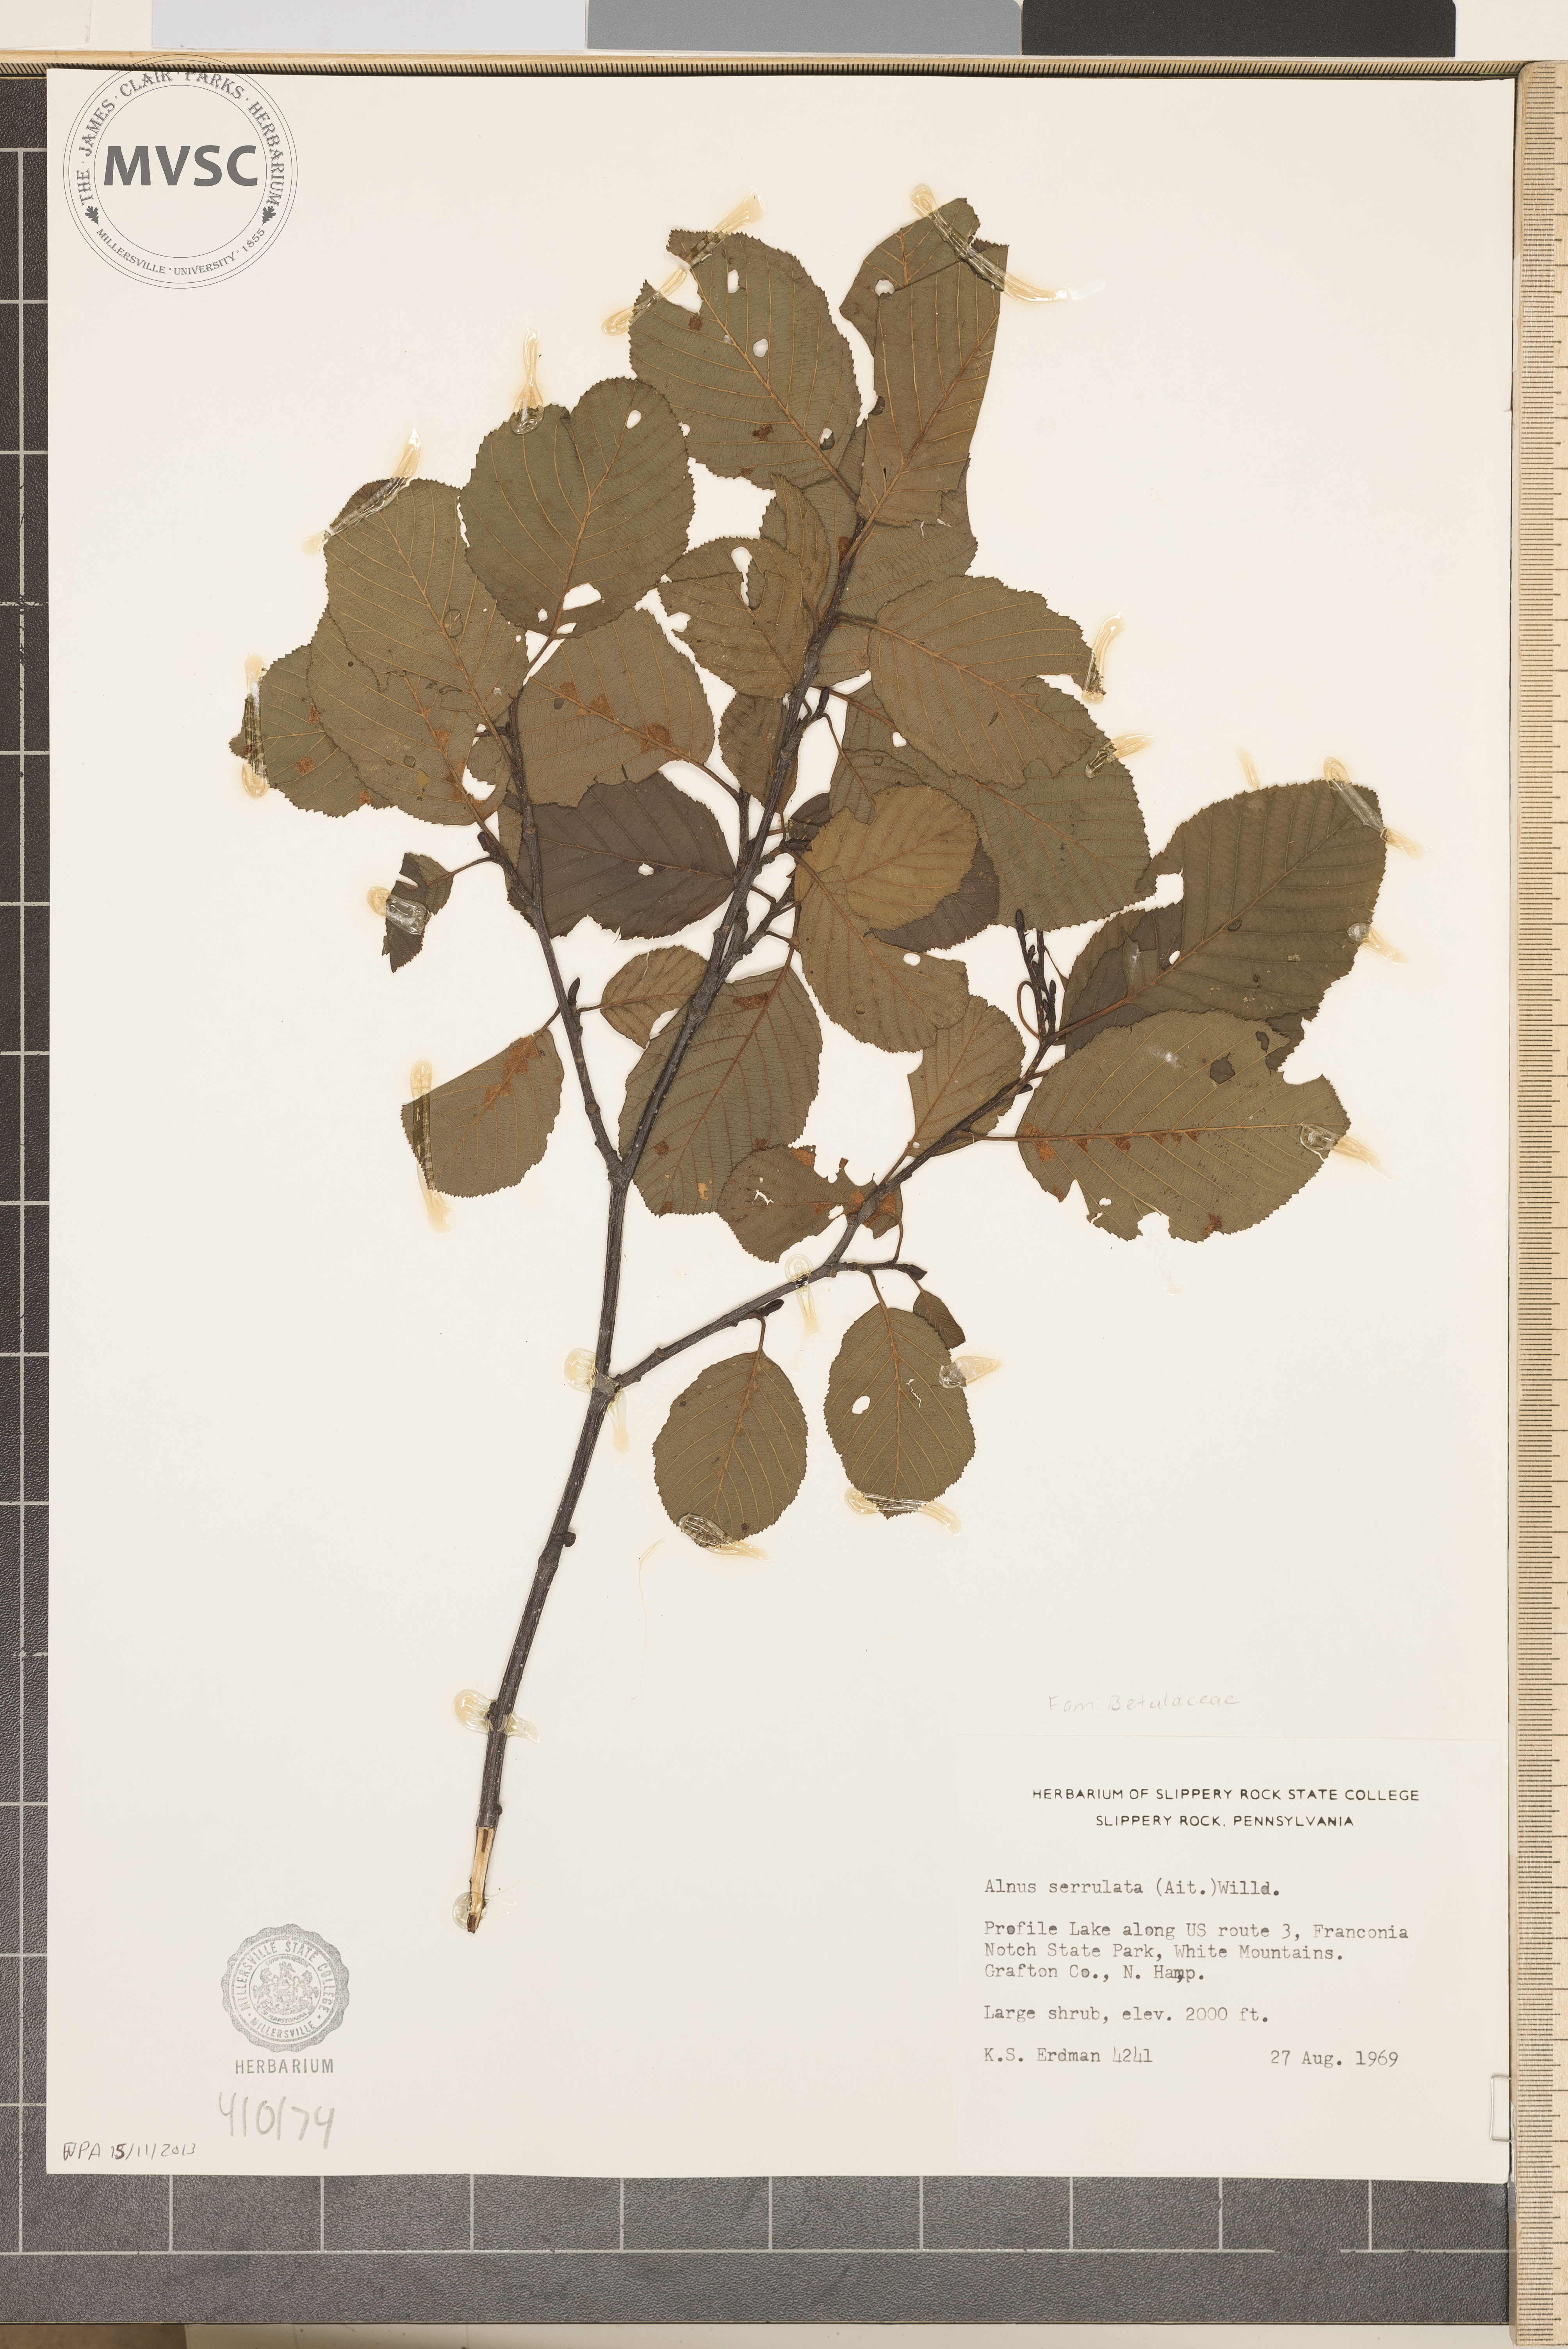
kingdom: Plantae
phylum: Tracheophyta
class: Magnoliopsida
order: Fagales
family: Betulaceae
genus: Alnus
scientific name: Alnus serrulata
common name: smooth alder
